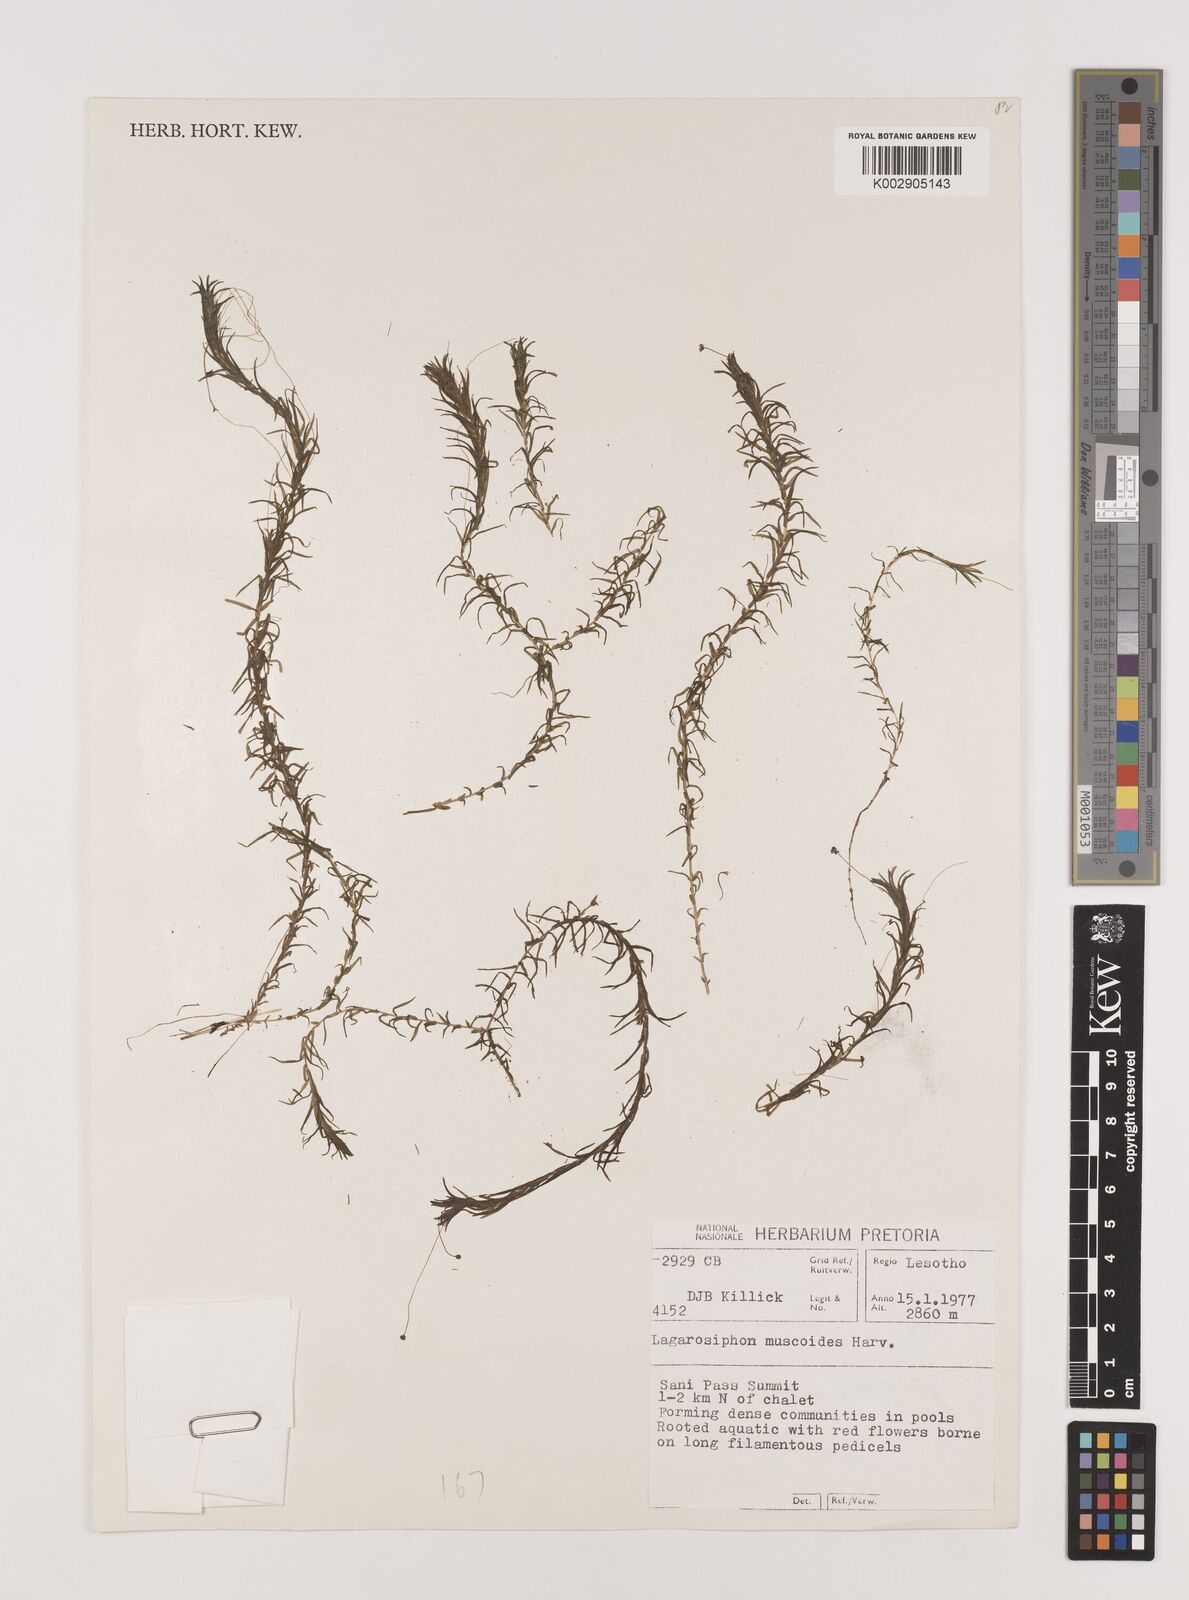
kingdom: Plantae
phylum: Tracheophyta
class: Liliopsida
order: Alismatales
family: Hydrocharitaceae
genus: Lagarosiphon
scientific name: Lagarosiphon muscoides
